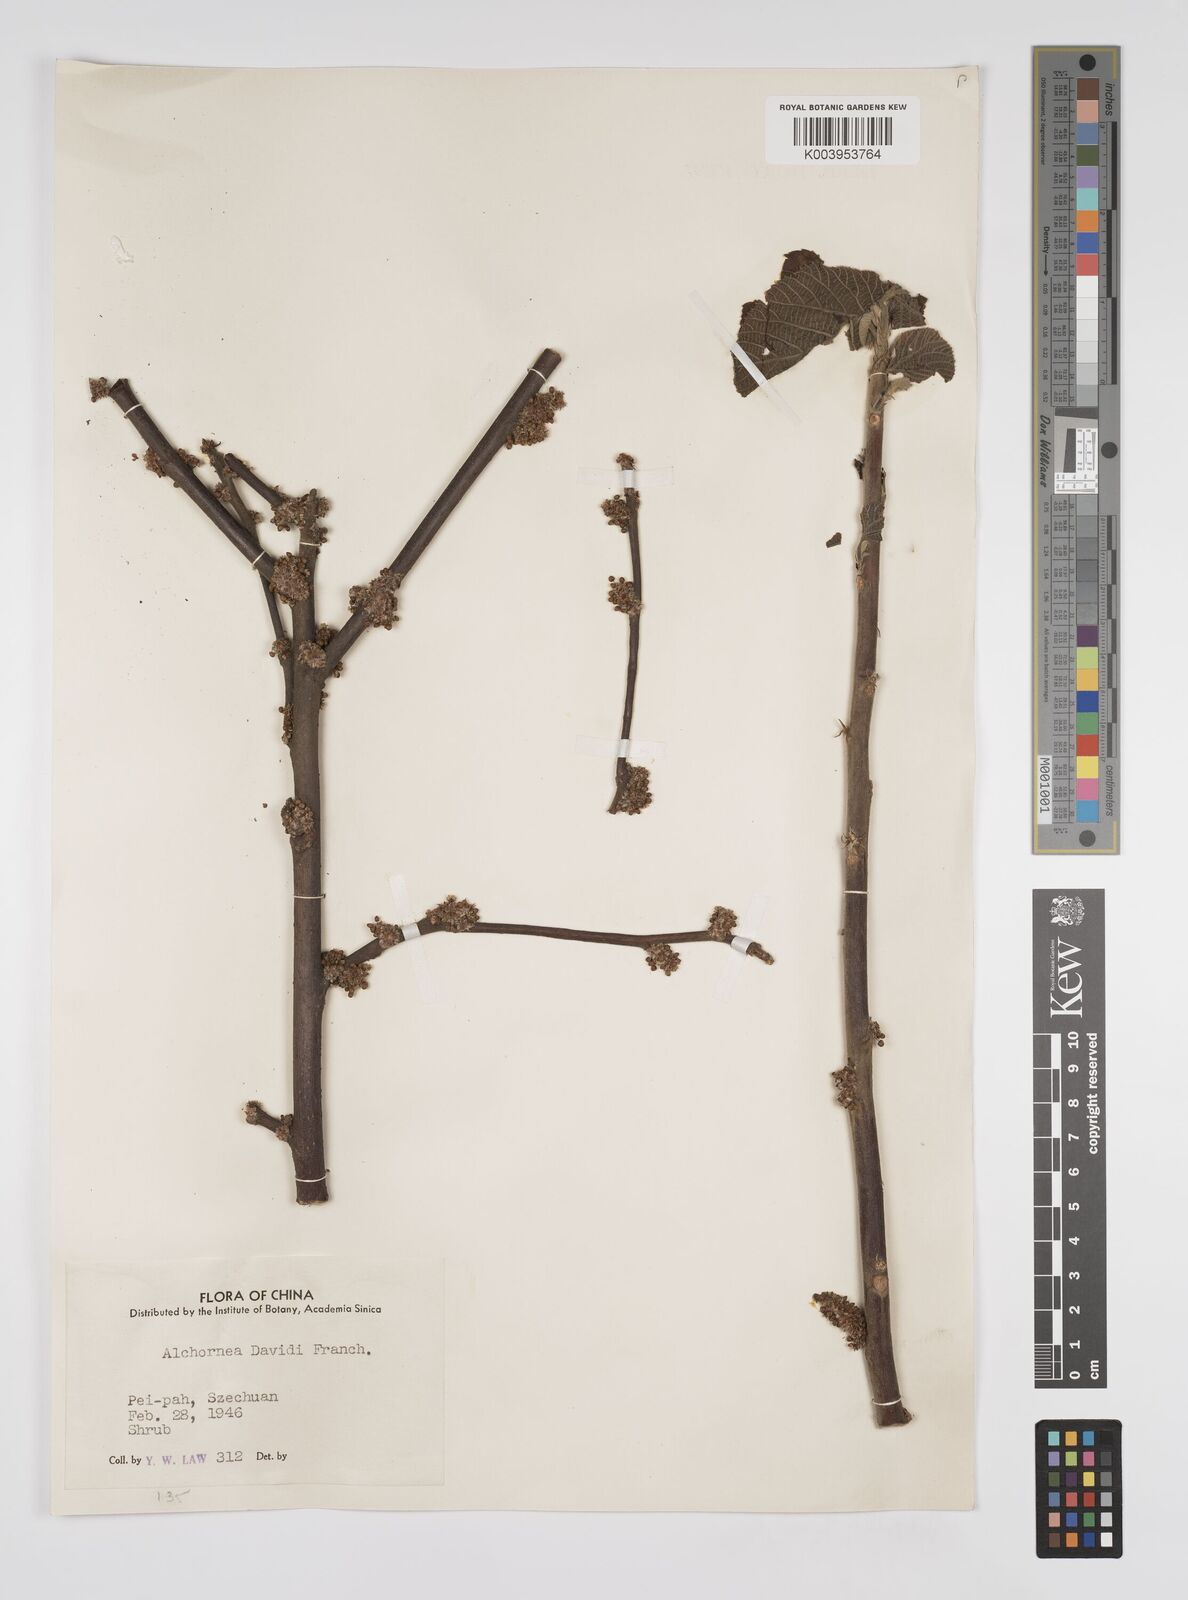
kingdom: Plantae
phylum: Tracheophyta
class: Magnoliopsida
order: Malpighiales
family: Euphorbiaceae
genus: Alchornea
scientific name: Alchornea davidii
